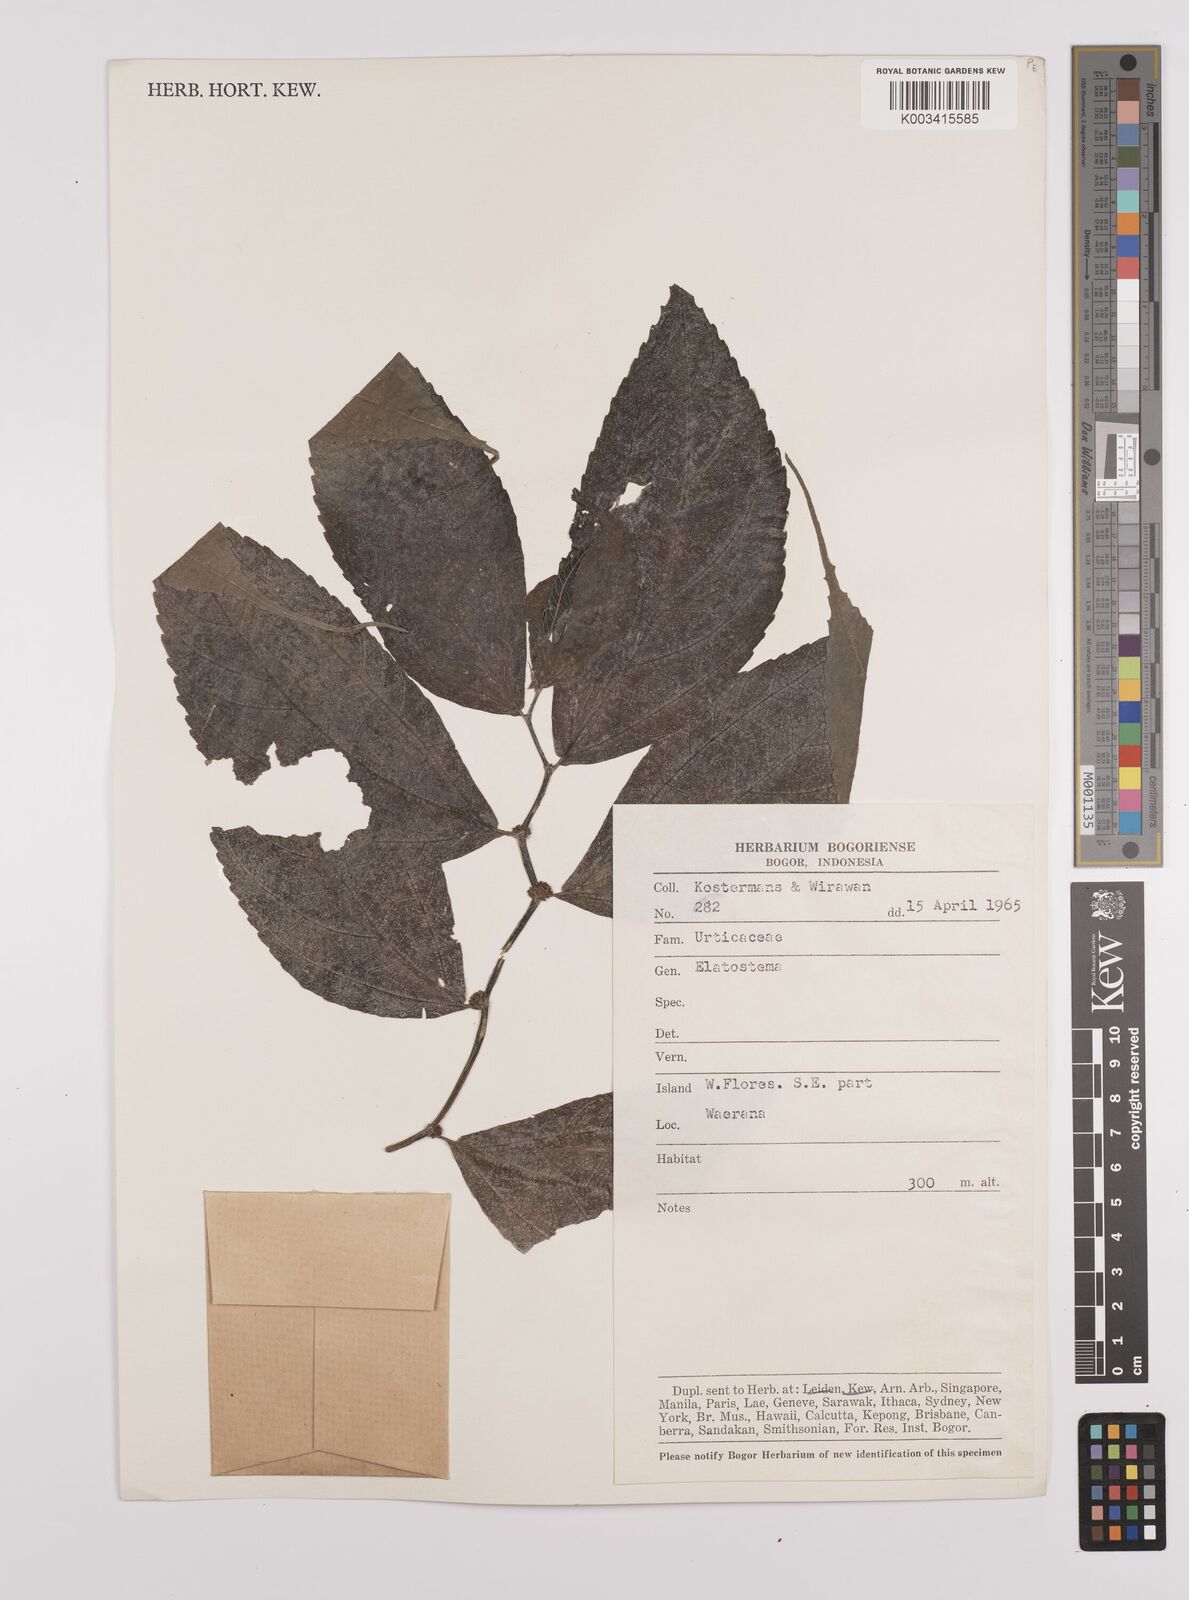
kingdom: Plantae
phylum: Tracheophyta
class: Magnoliopsida
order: Rosales
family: Urticaceae
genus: Elatostema
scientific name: Elatostema
